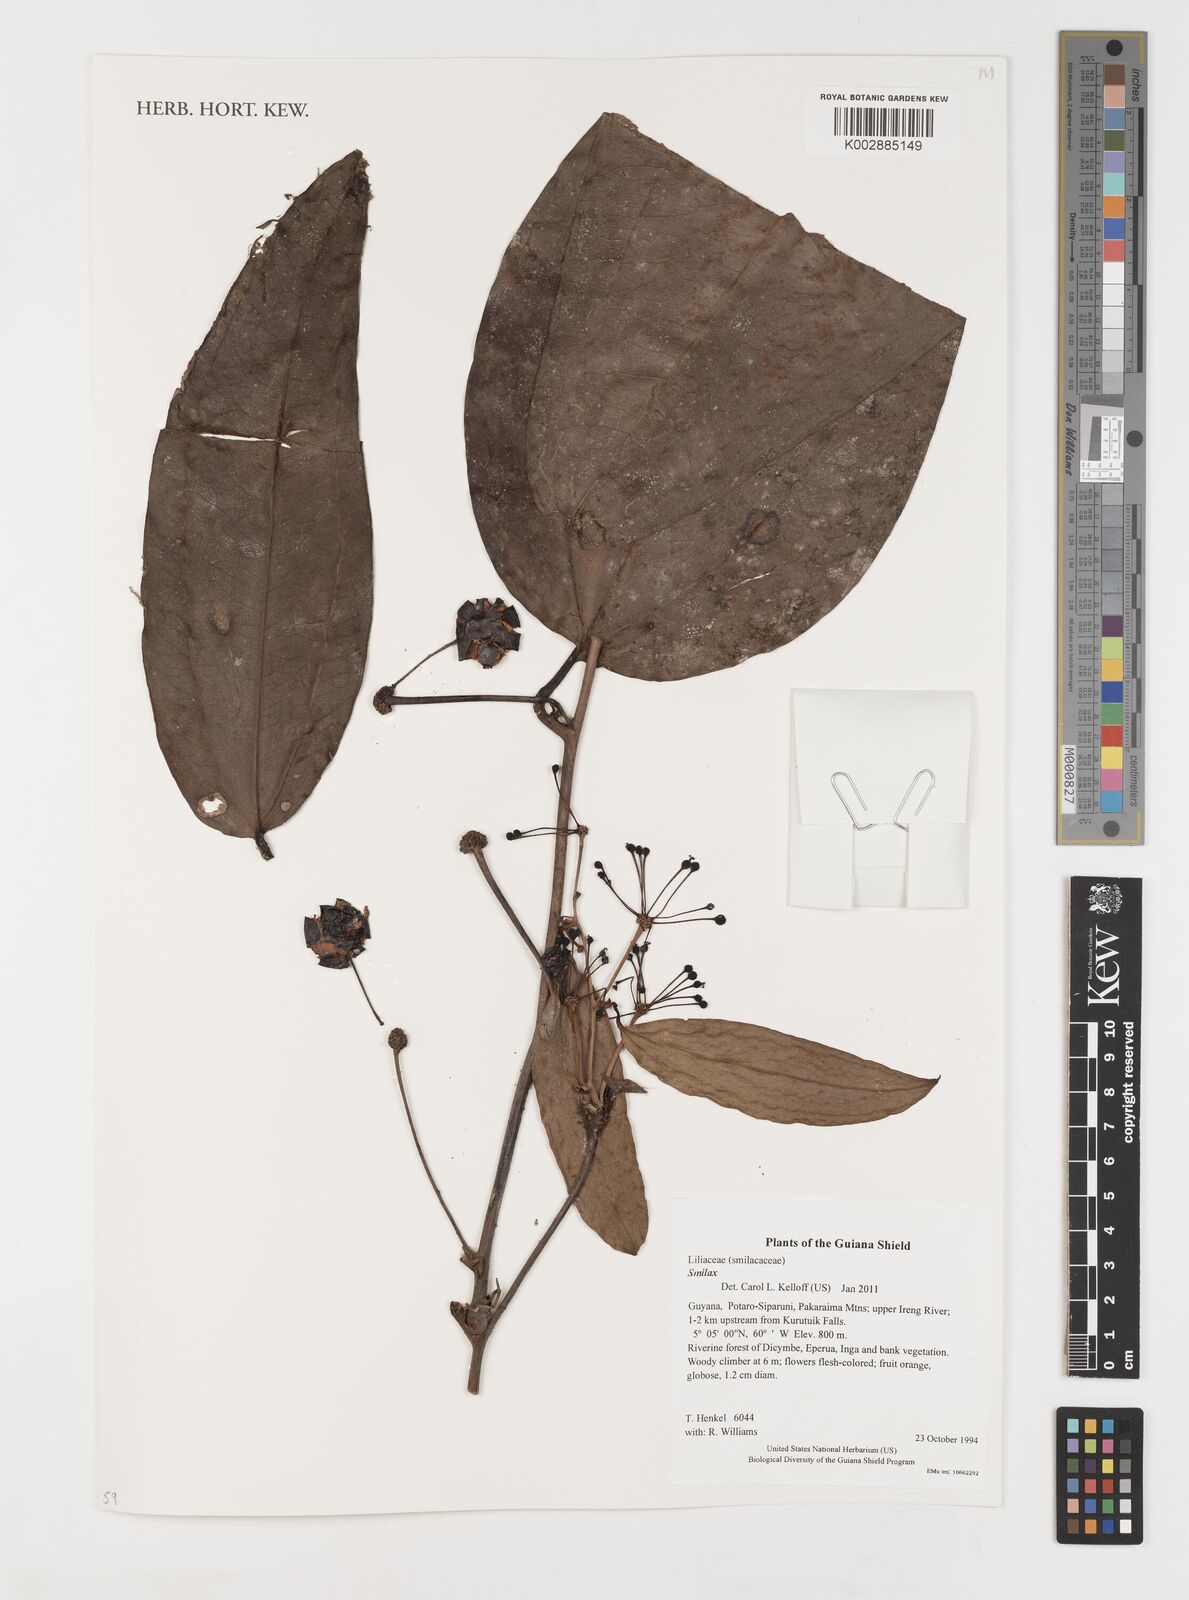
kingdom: Plantae
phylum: Tracheophyta
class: Liliopsida
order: Liliales
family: Smilacaceae
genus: Smilax
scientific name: Smilax
